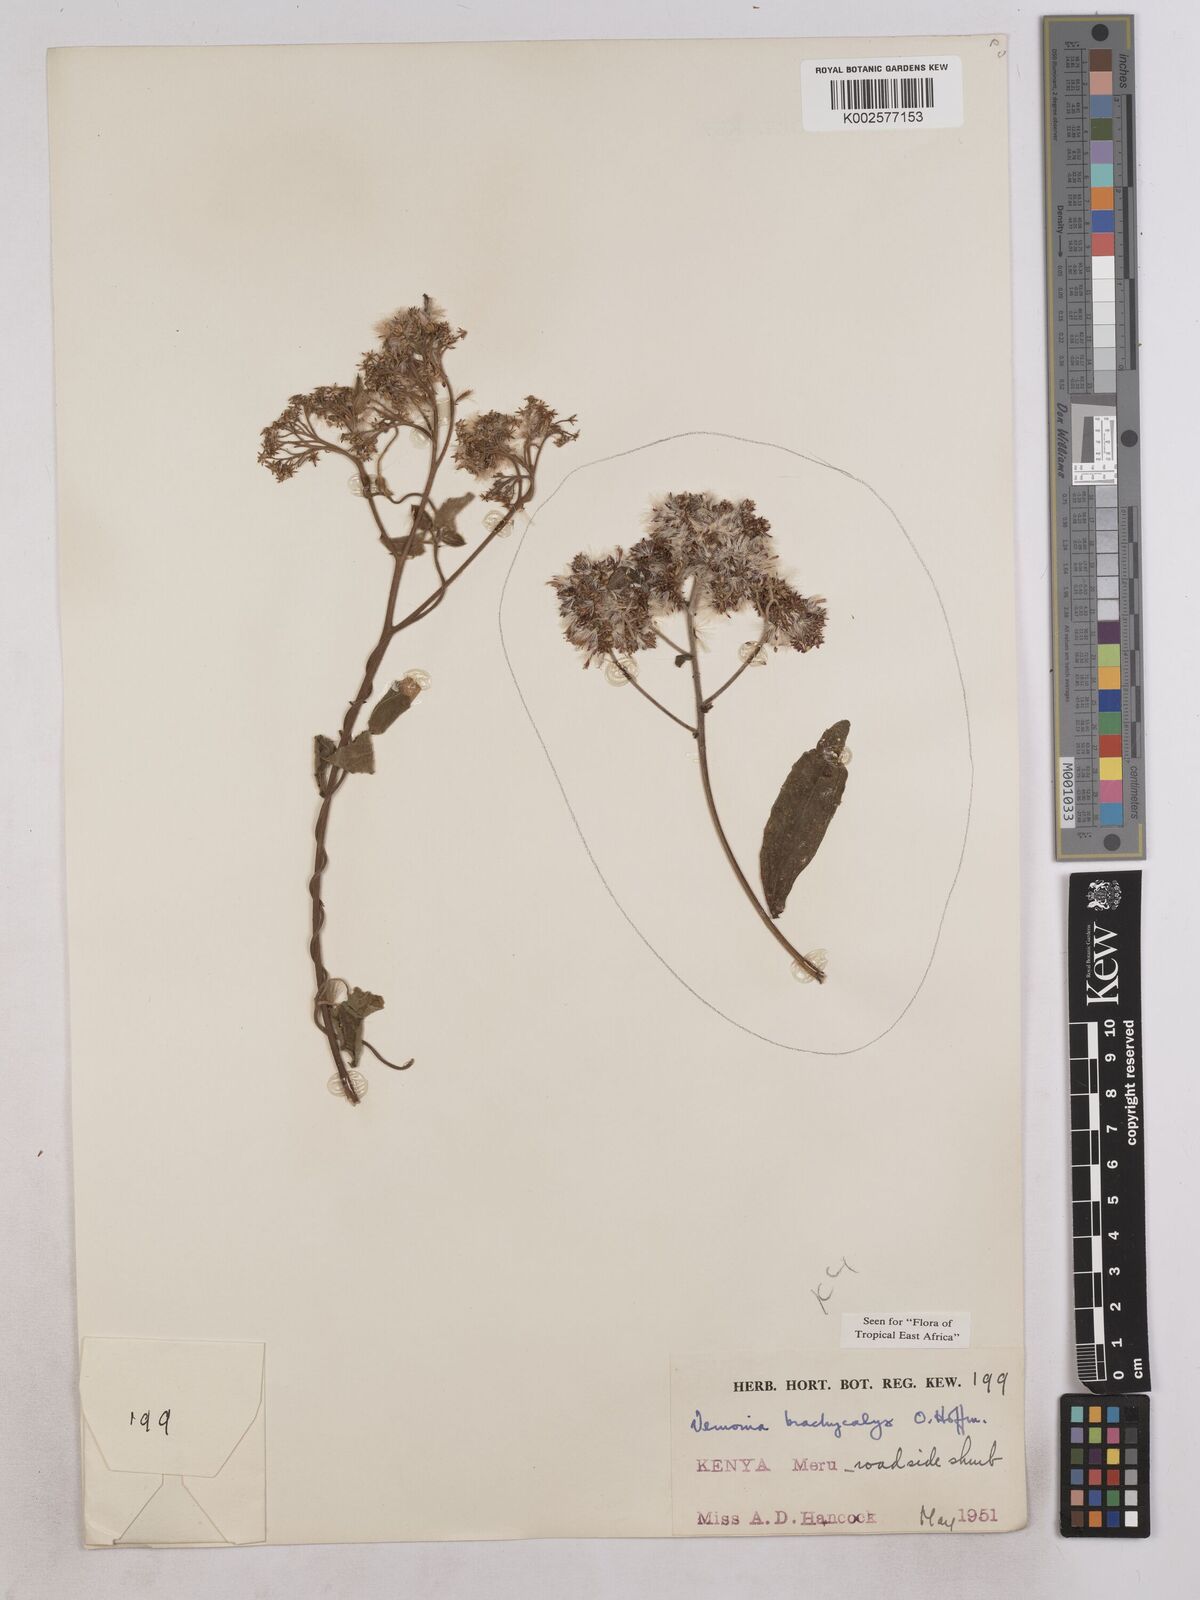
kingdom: Plantae
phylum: Tracheophyta
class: Magnoliopsida
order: Asterales
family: Asteraceae
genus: Hoffmannanthus
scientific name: Hoffmannanthus abbotianus
